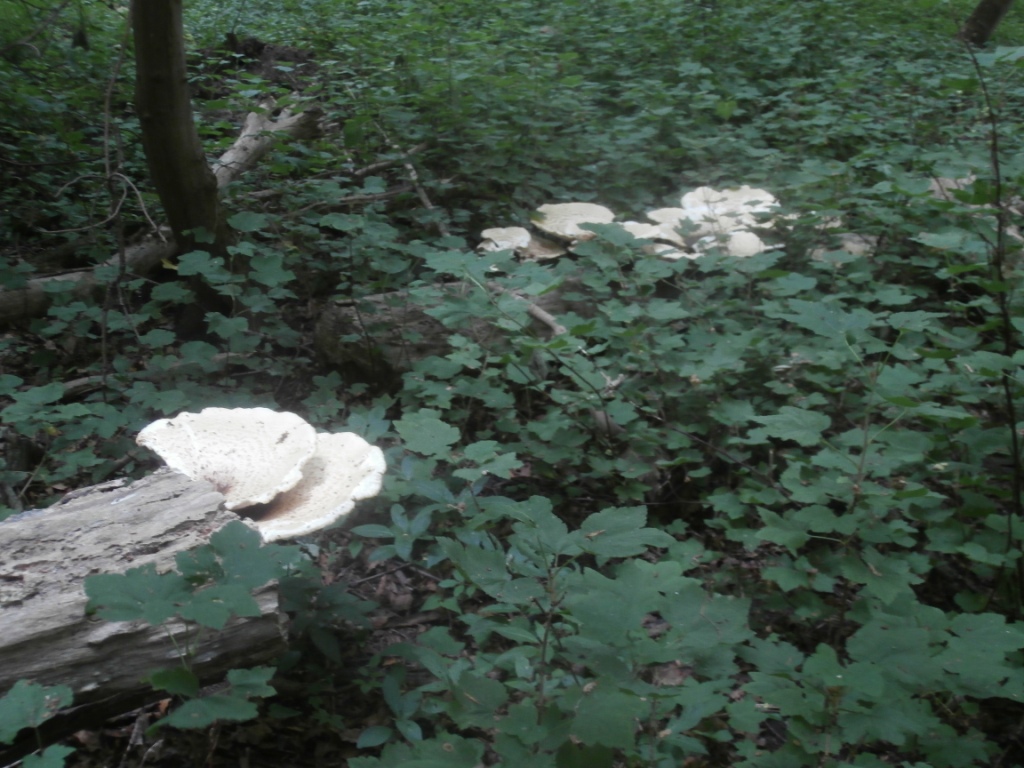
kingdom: Fungi
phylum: Basidiomycota
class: Agaricomycetes
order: Polyporales
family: Polyporaceae
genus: Cerioporus
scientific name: Cerioporus squamosus
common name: skællet stilkporesvamp
